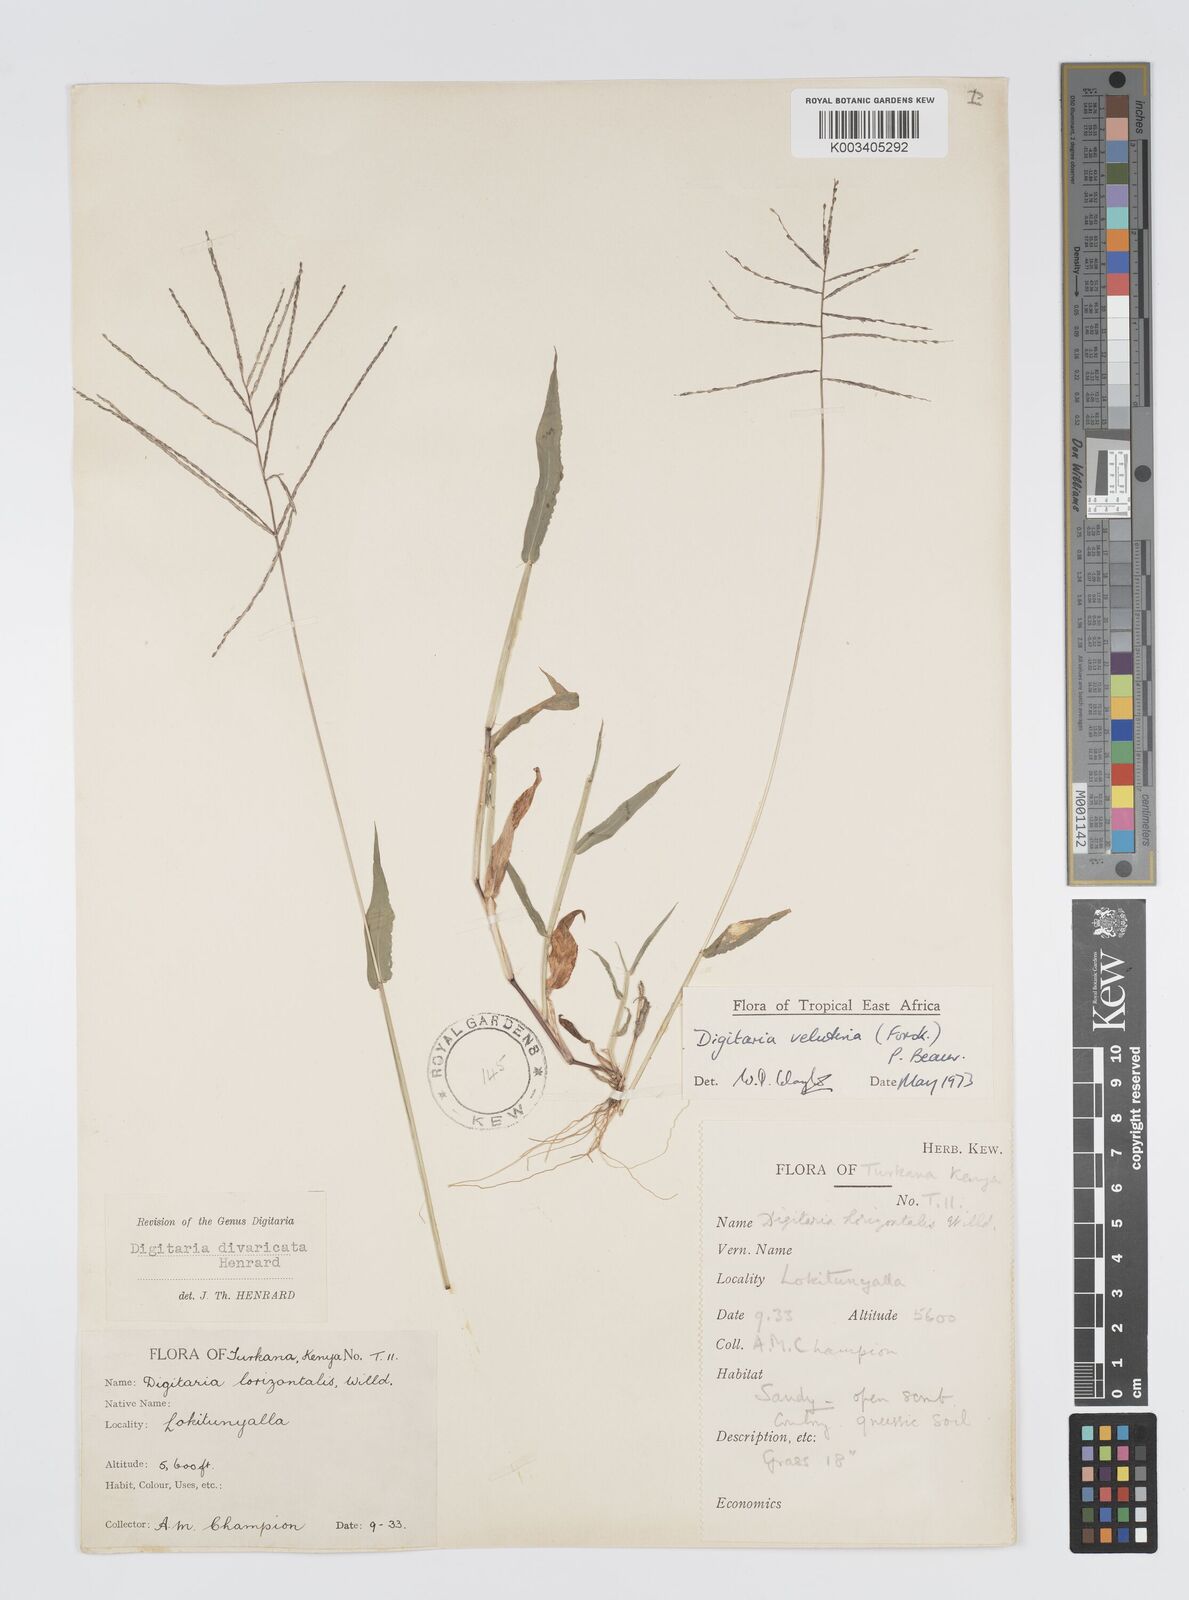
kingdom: Plantae
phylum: Tracheophyta
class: Liliopsida
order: Poales
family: Poaceae
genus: Digitaria
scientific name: Digitaria velutina
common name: Long-plume finger grass
